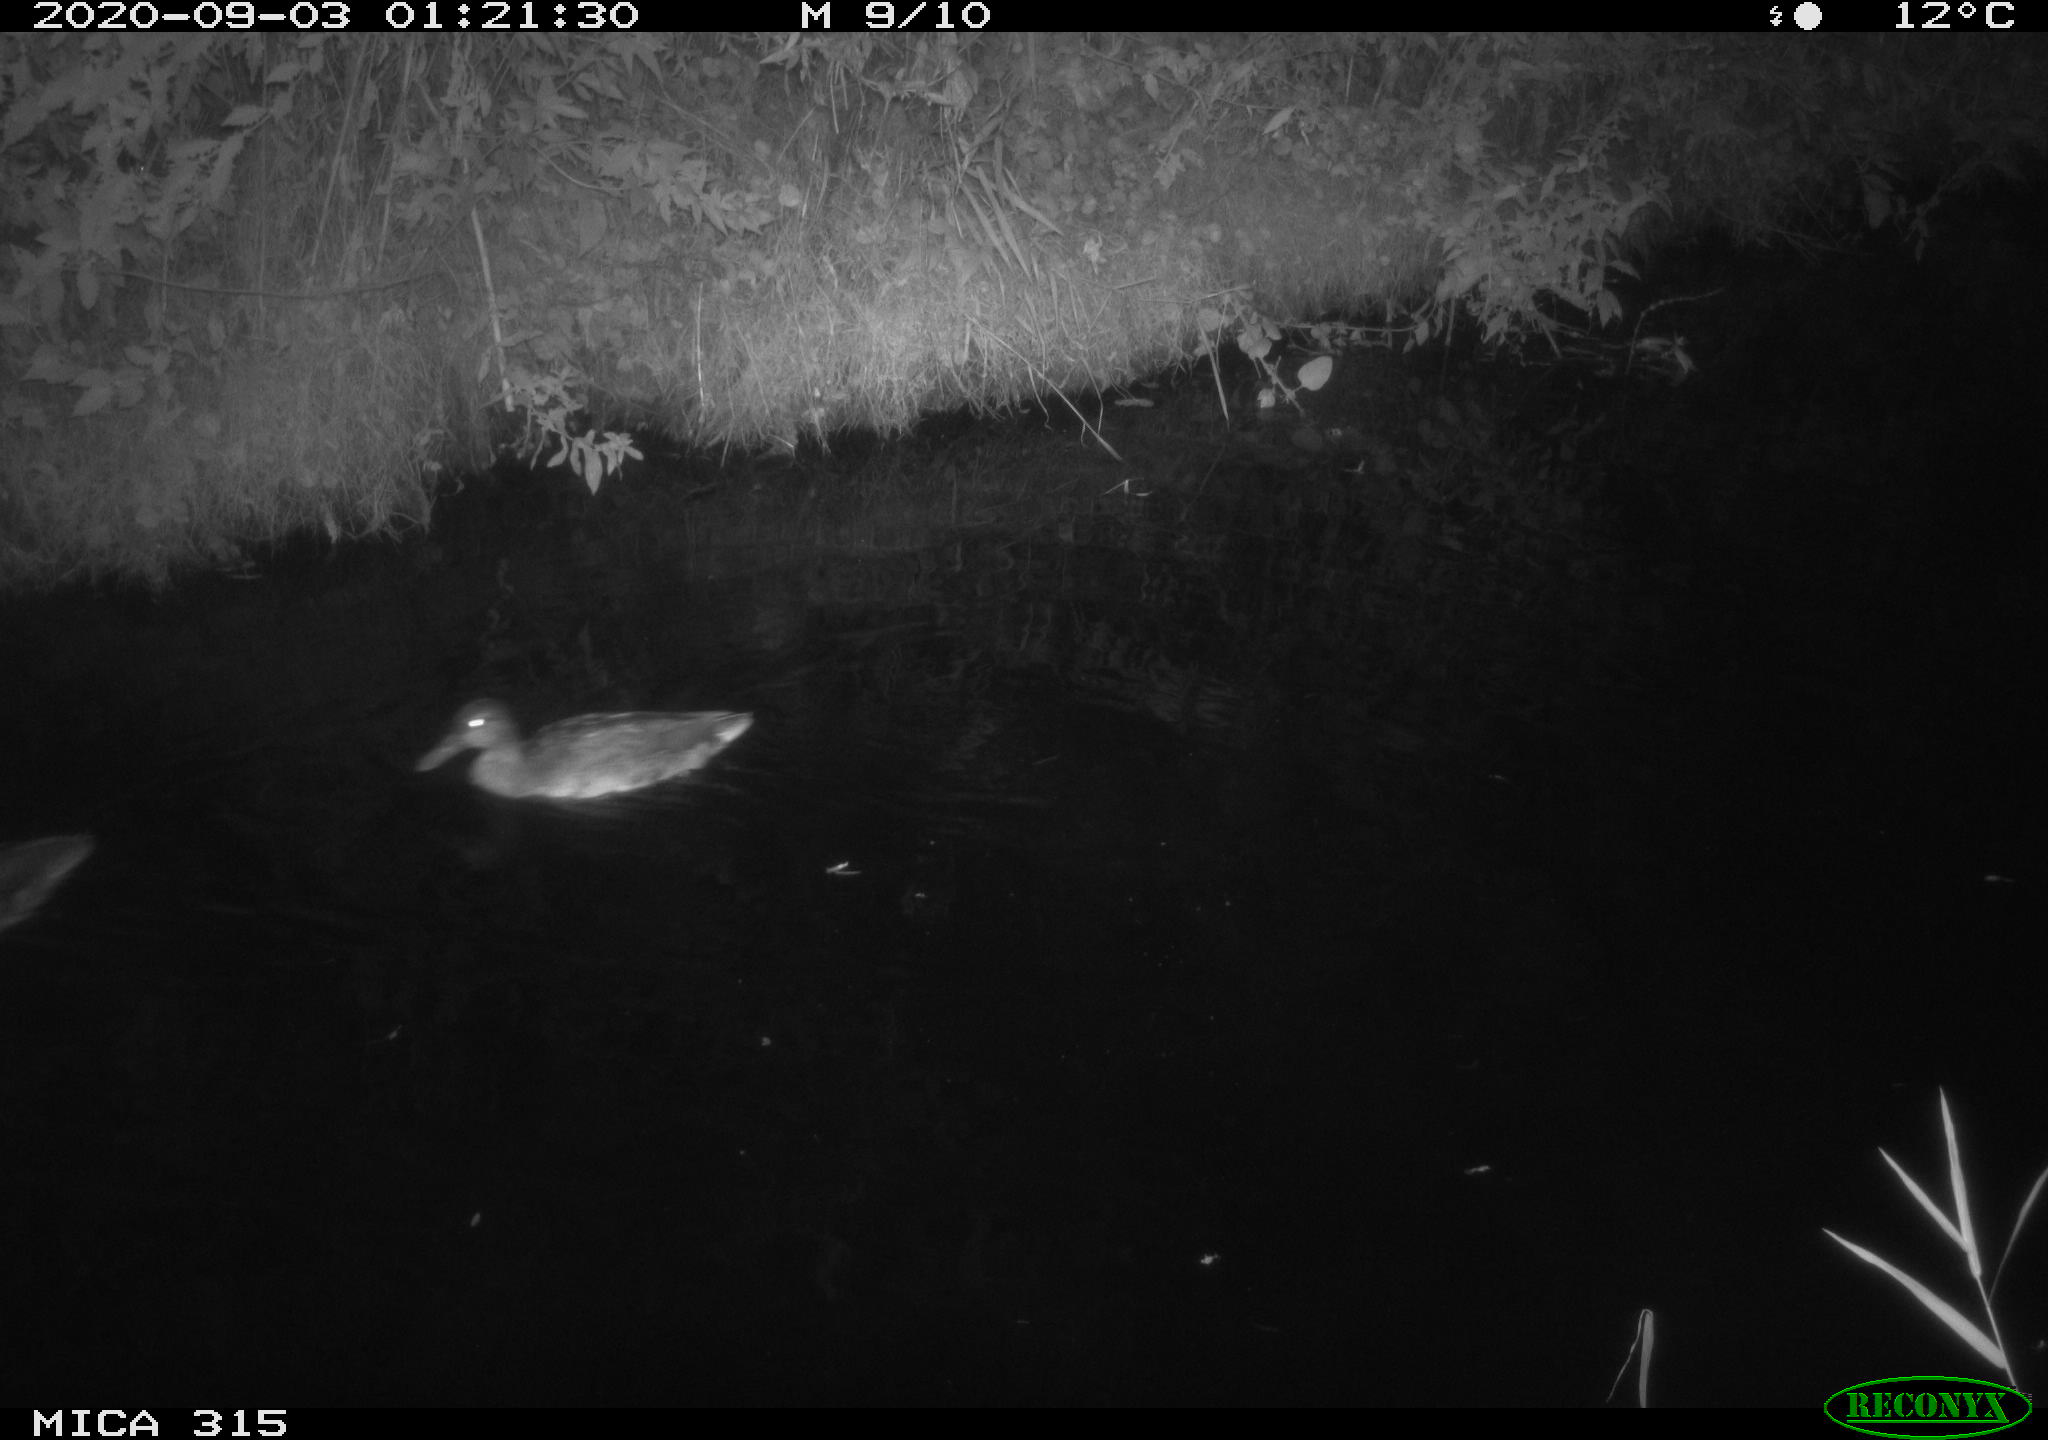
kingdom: Animalia
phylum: Chordata
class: Aves
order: Anseriformes
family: Anatidae
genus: Anas
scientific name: Anas platyrhynchos
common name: Mallard
